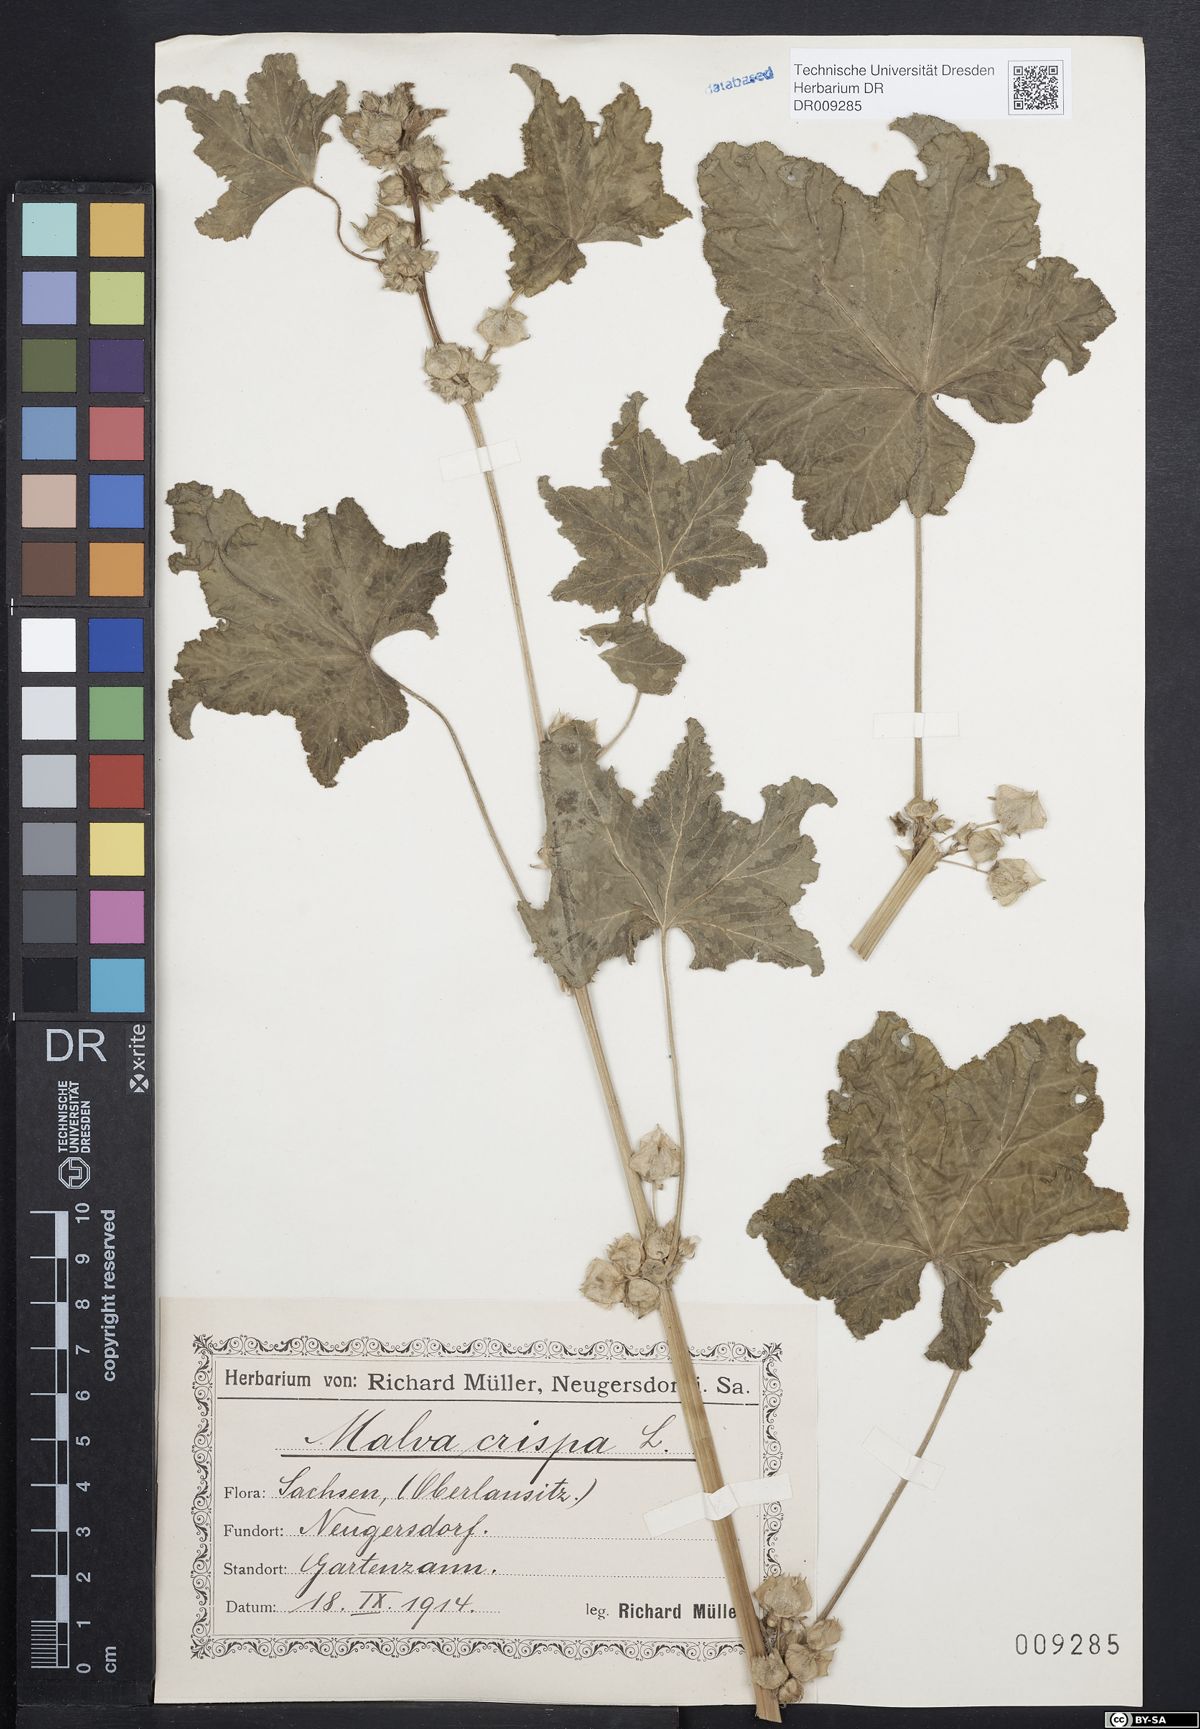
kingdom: Plantae
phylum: Tracheophyta
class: Magnoliopsida
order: Malvales
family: Malvaceae
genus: Malva
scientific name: Malva verticillata
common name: Chinese mallow
